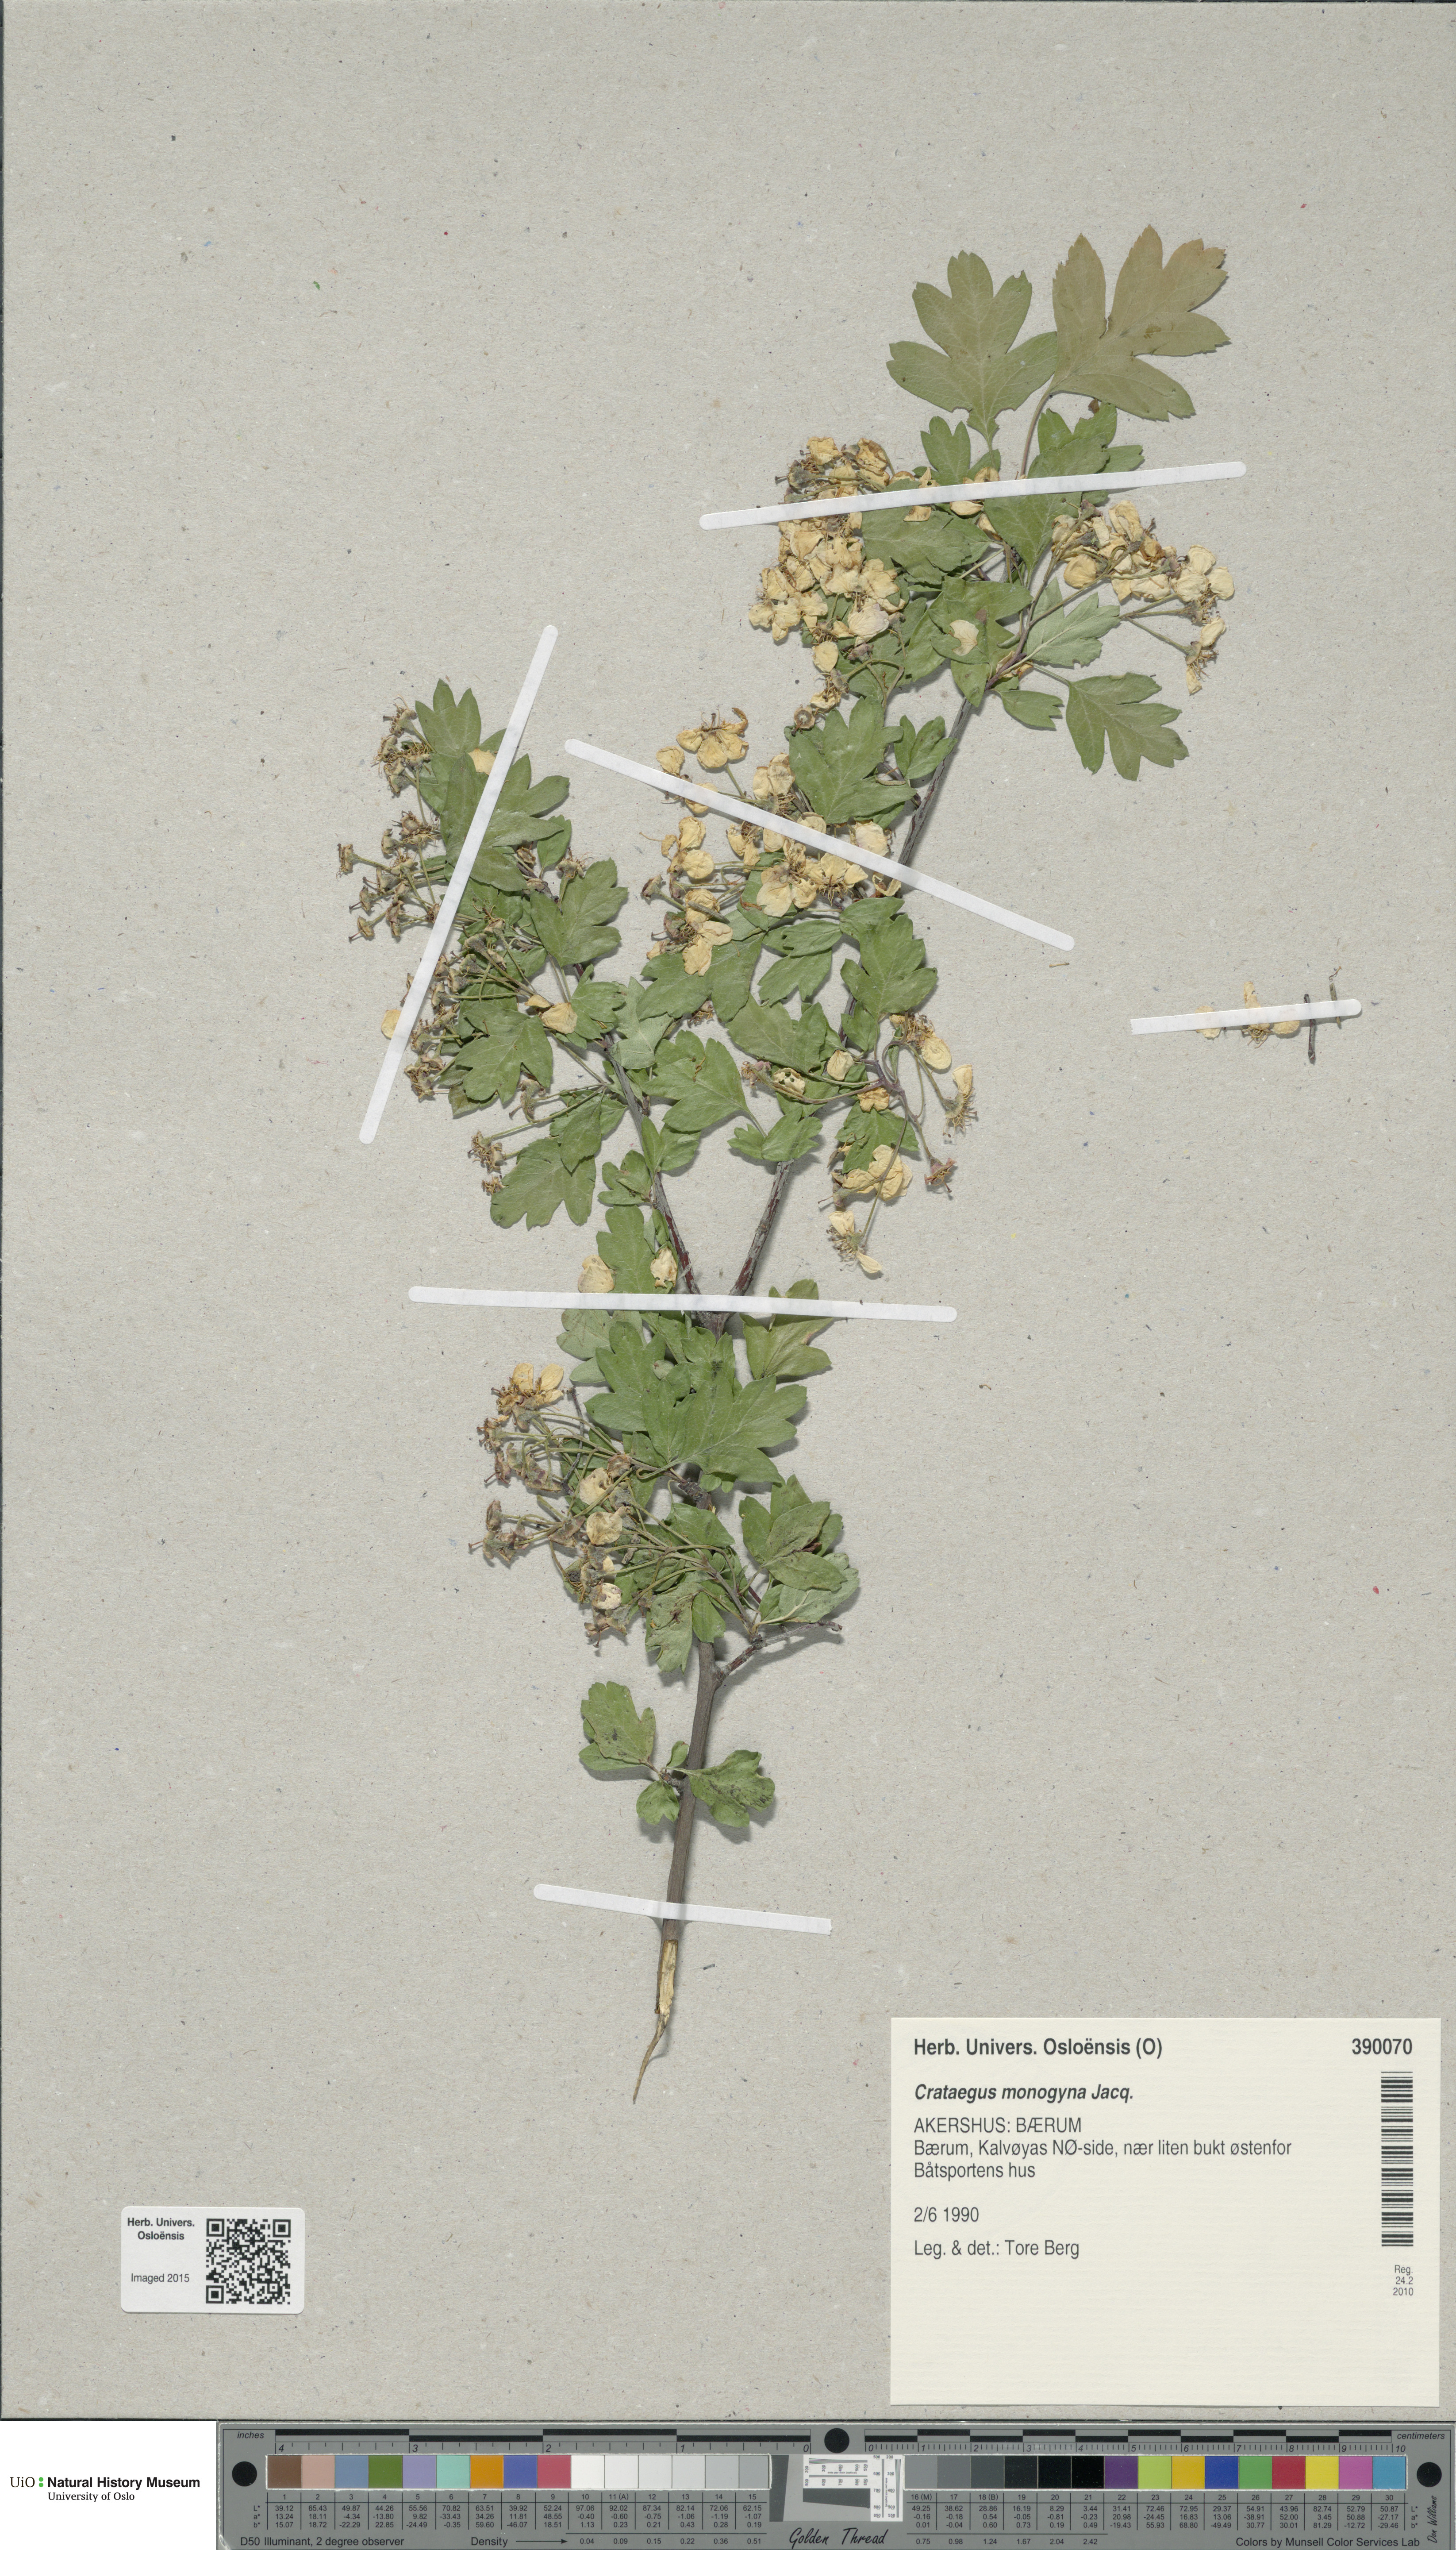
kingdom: Plantae
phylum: Tracheophyta
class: Magnoliopsida
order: Rosales
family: Rosaceae
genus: Crataegus
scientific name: Crataegus monogyna
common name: Hawthorn
